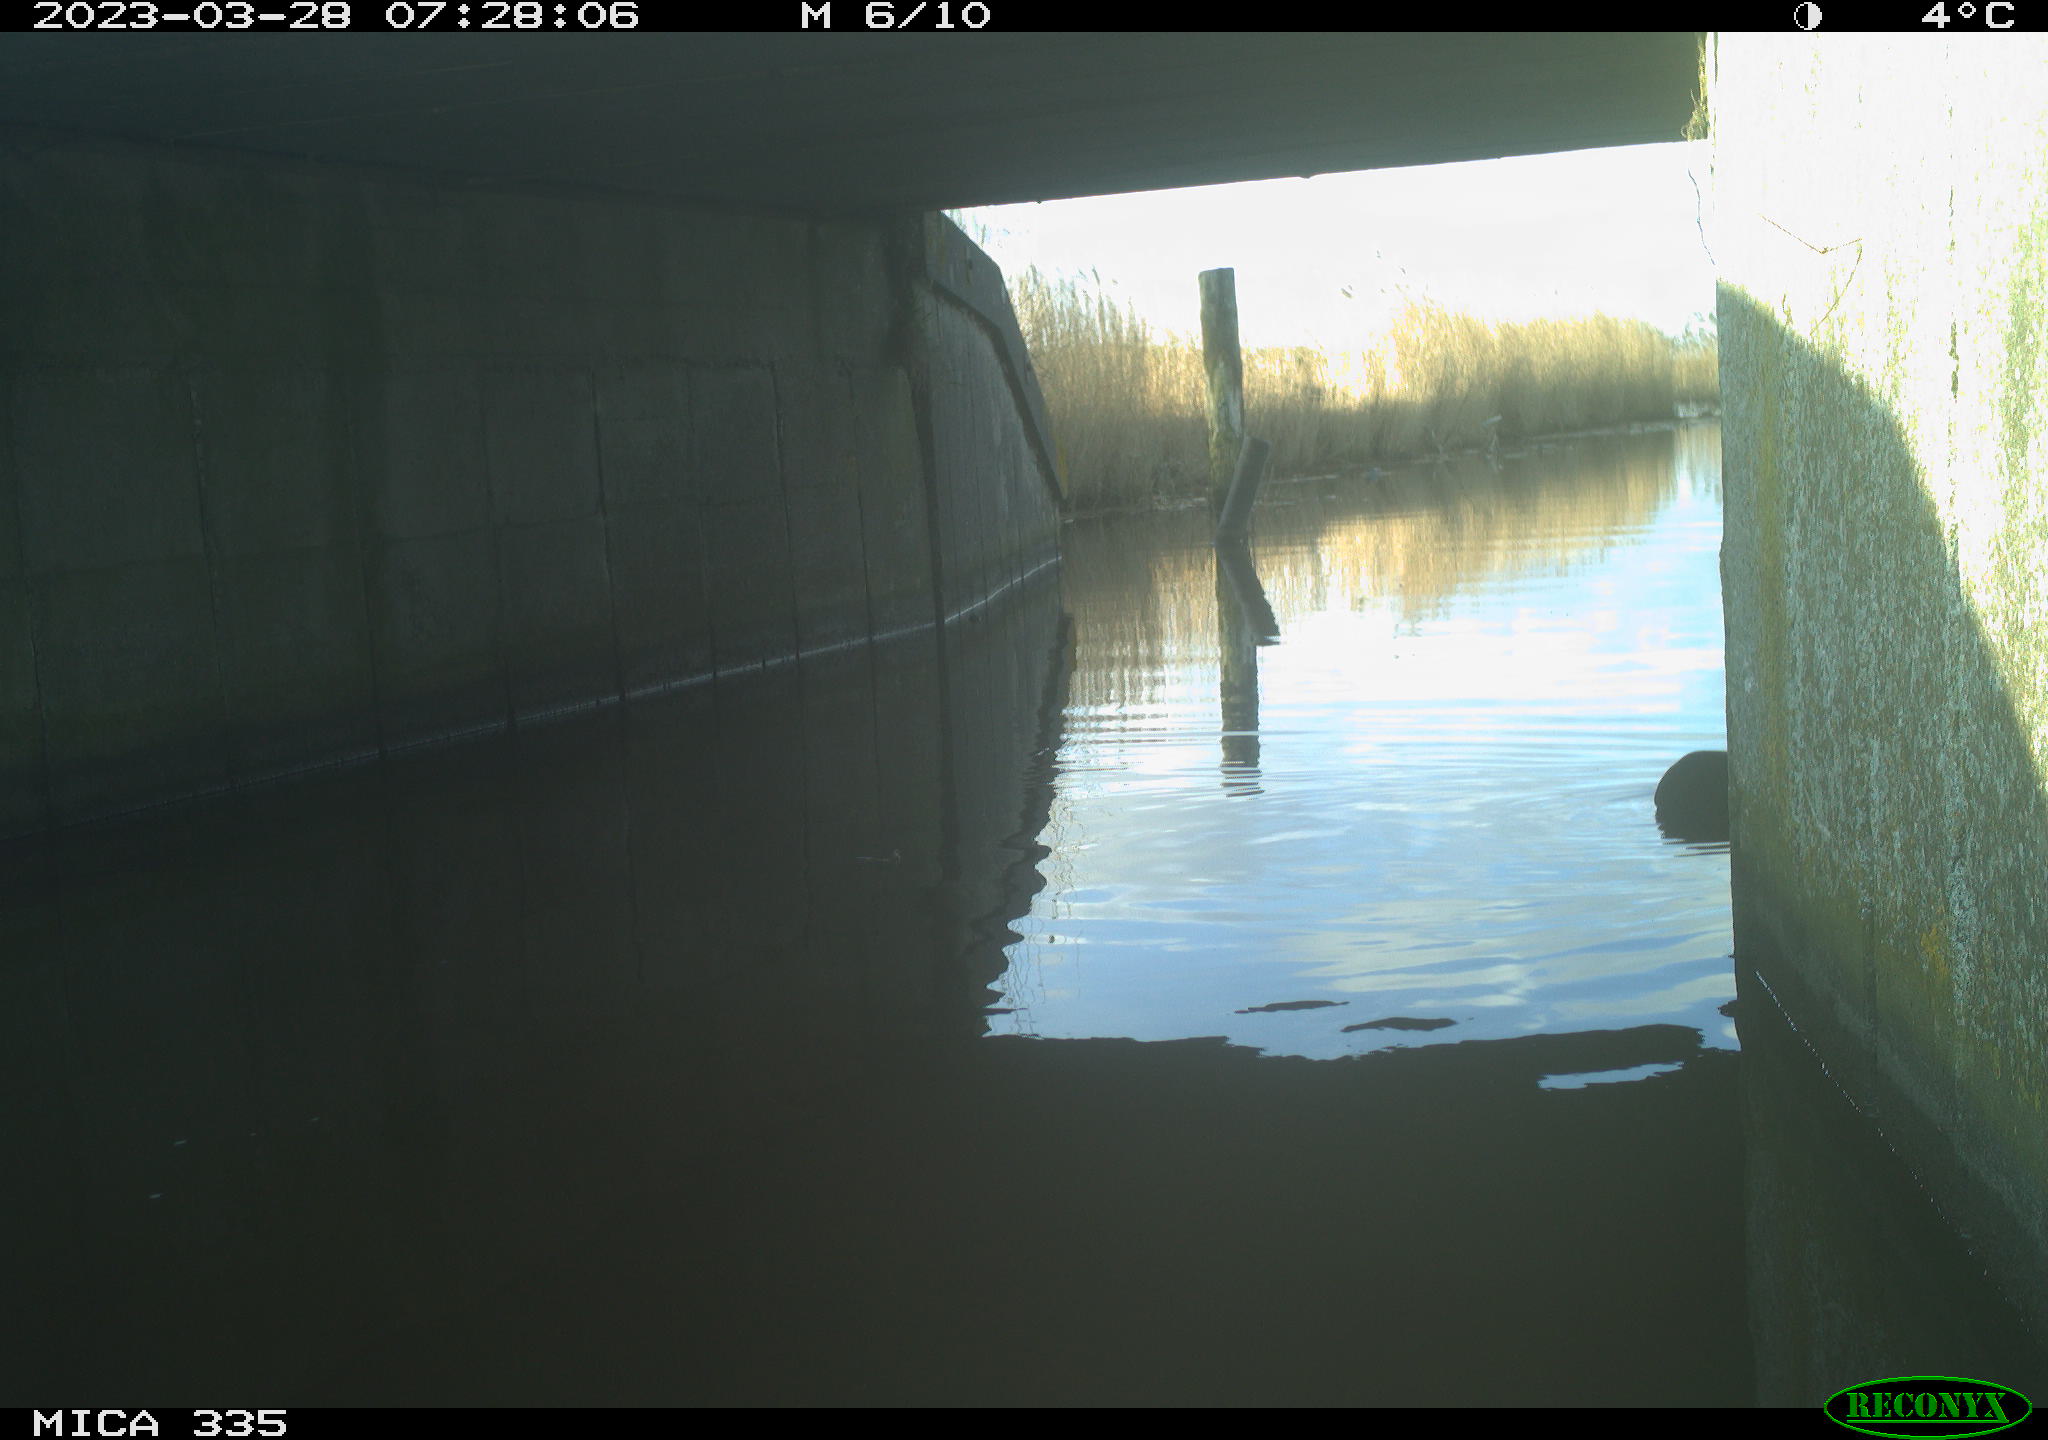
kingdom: Animalia
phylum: Chordata
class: Aves
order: Gruiformes
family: Rallidae
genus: Fulica
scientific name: Fulica atra
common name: Eurasian coot
